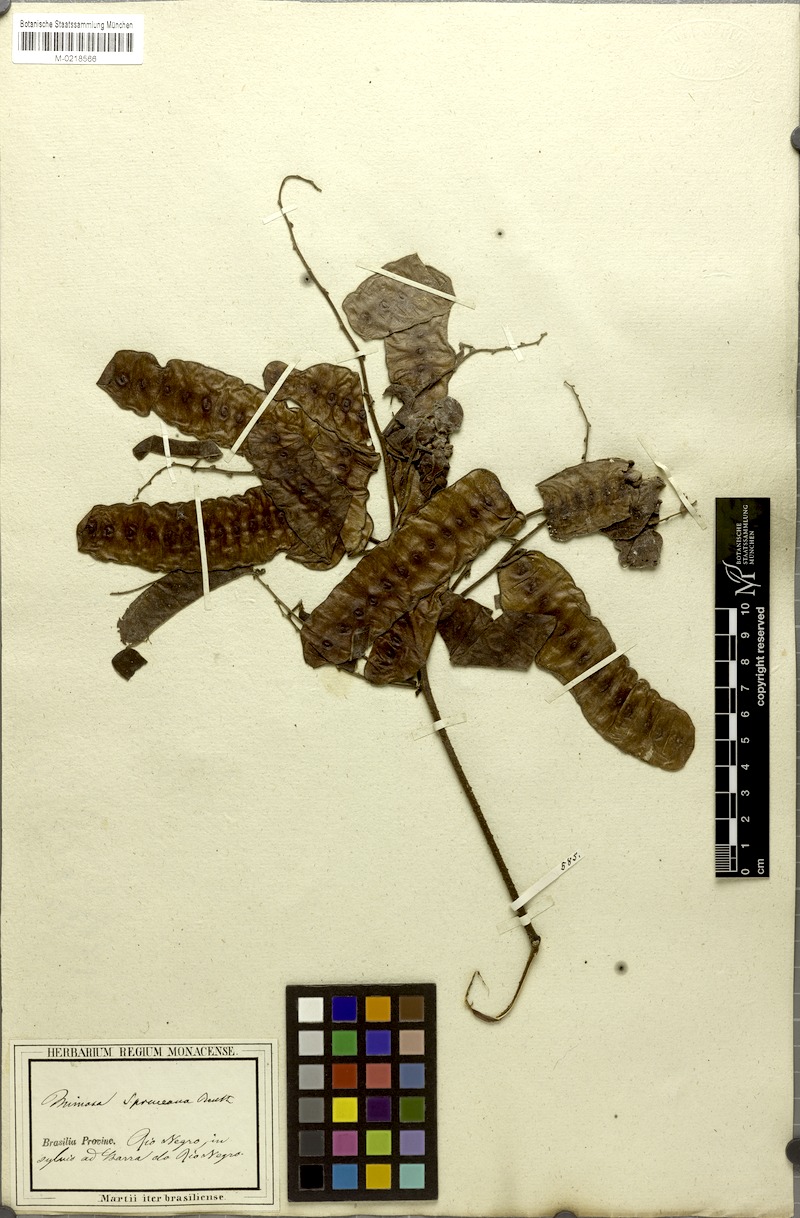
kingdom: Plantae
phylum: Tracheophyta
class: Magnoliopsida
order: Fabales
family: Fabaceae
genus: Mimosa
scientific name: Mimosa guilandinae
